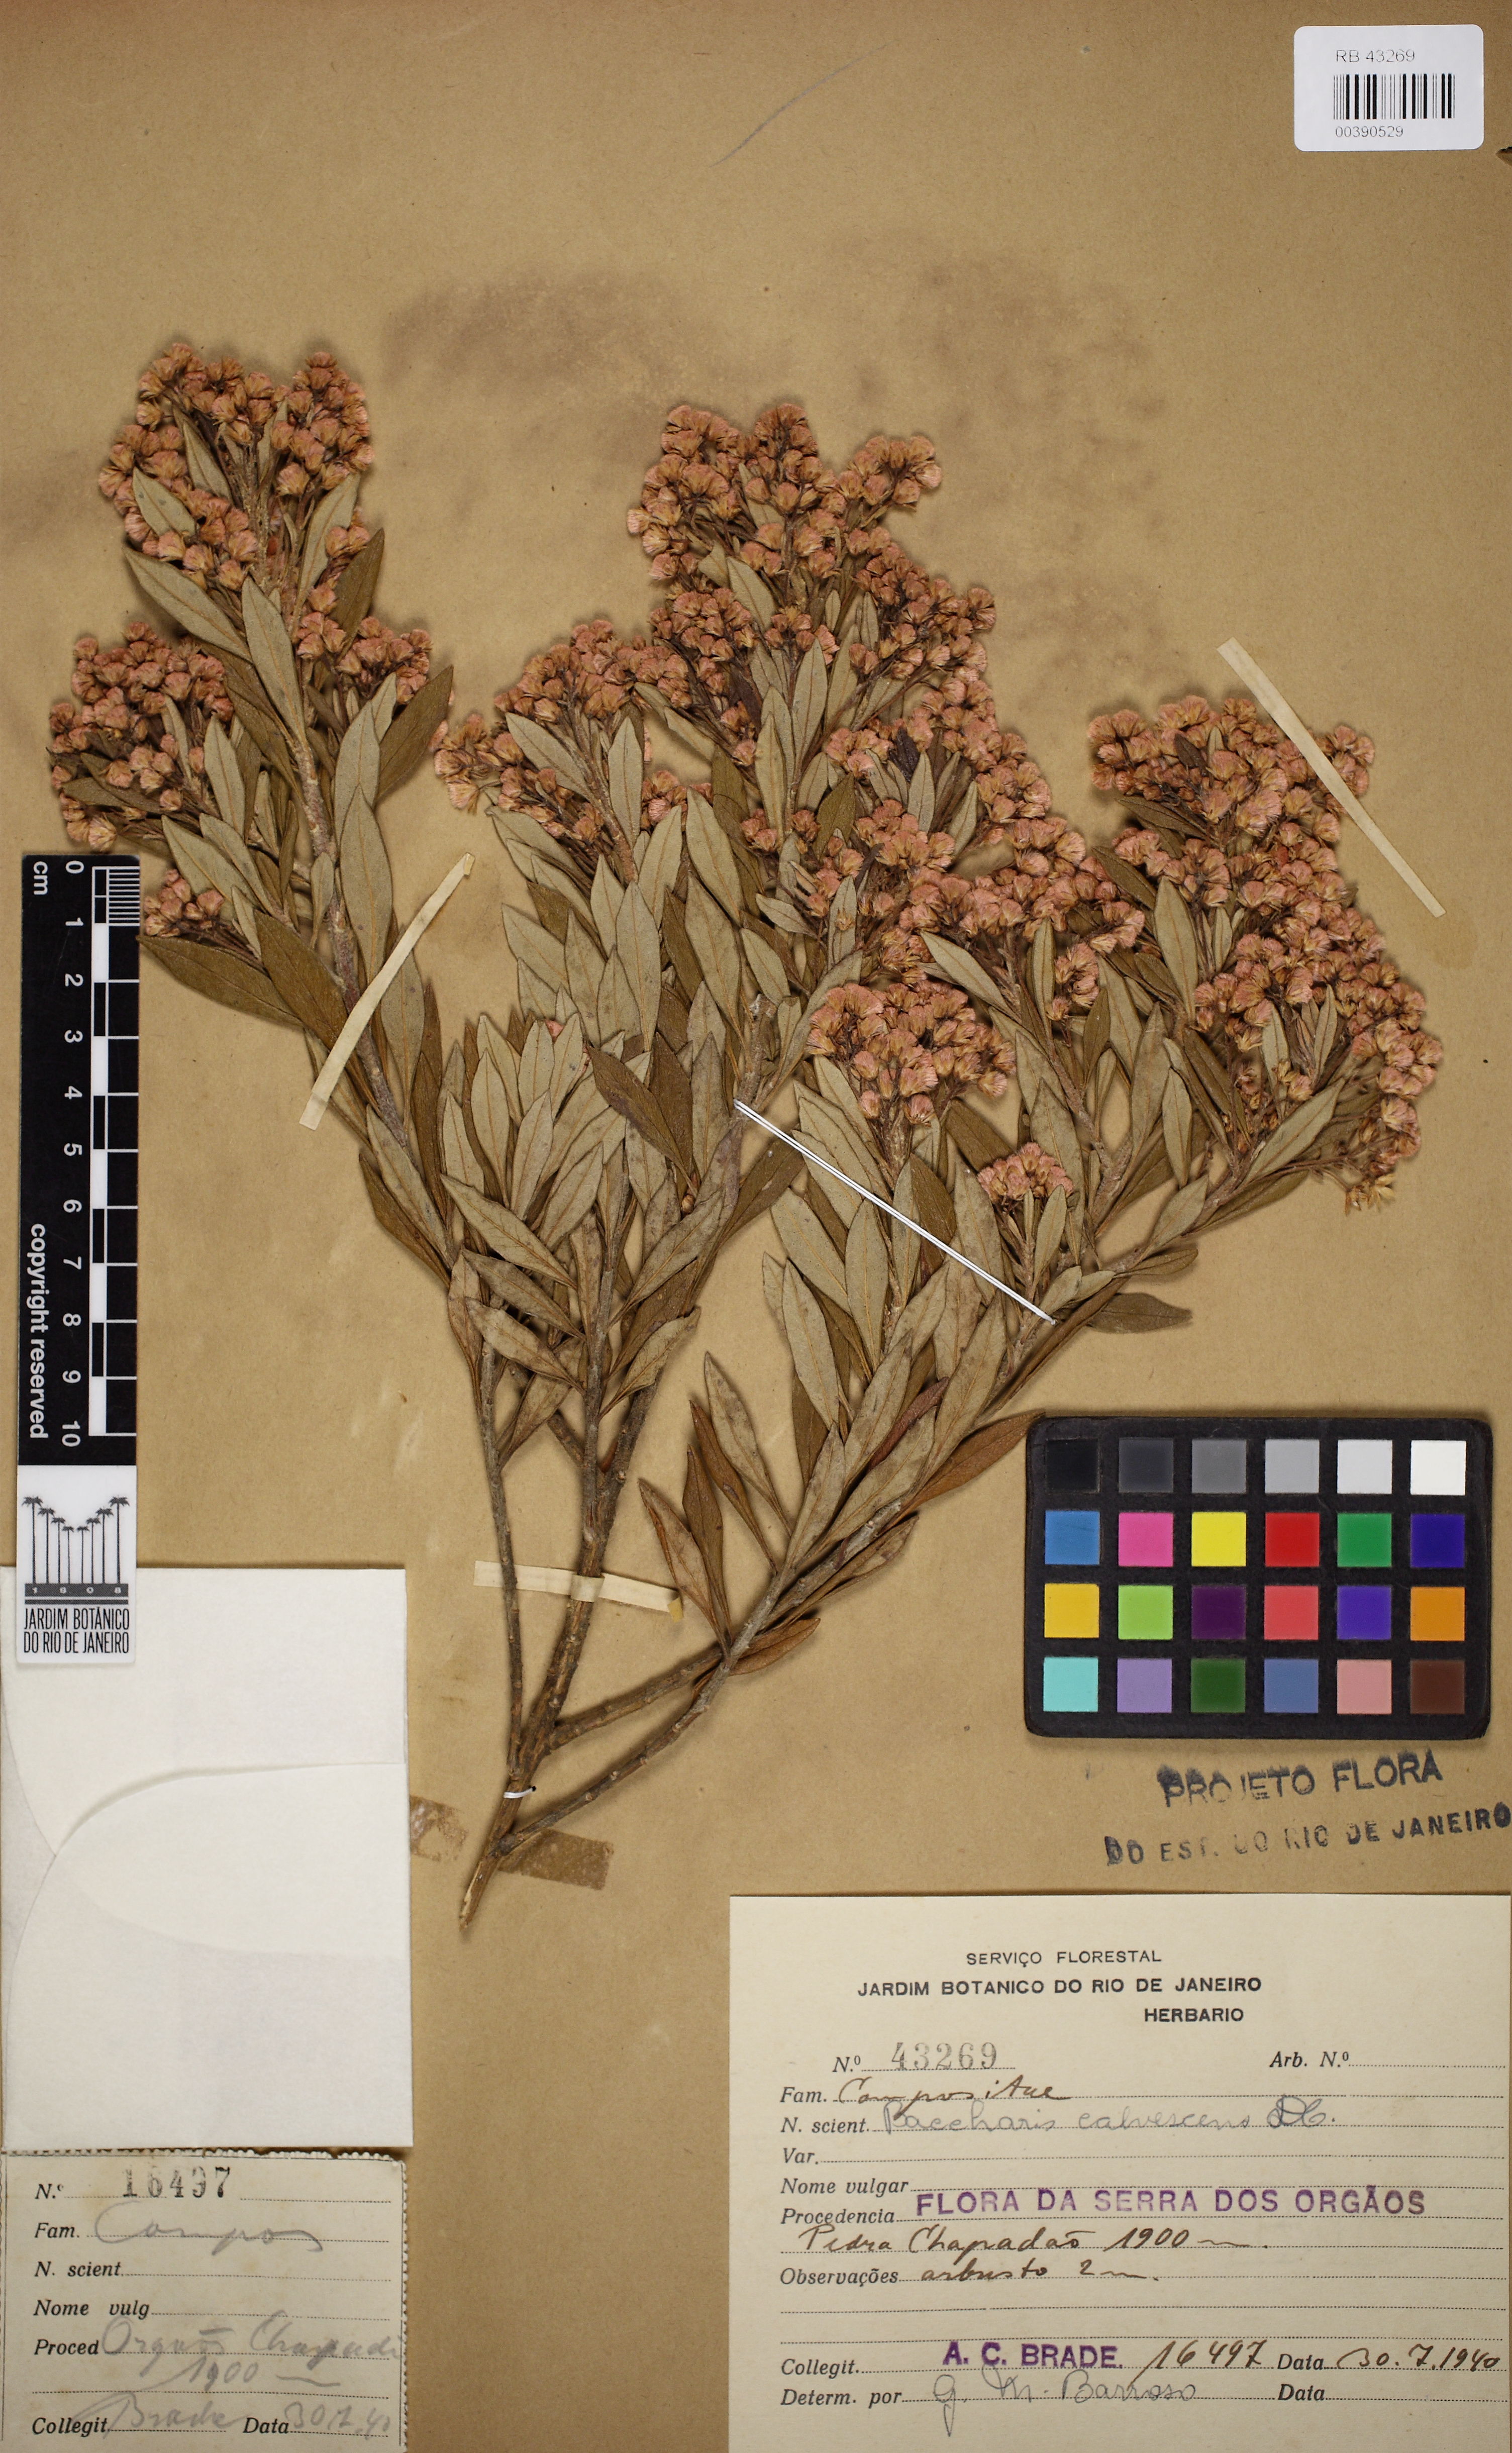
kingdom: Plantae
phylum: Tracheophyta
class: Magnoliopsida
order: Asterales
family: Asteraceae
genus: Baccharis
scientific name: Baccharis calvescens
